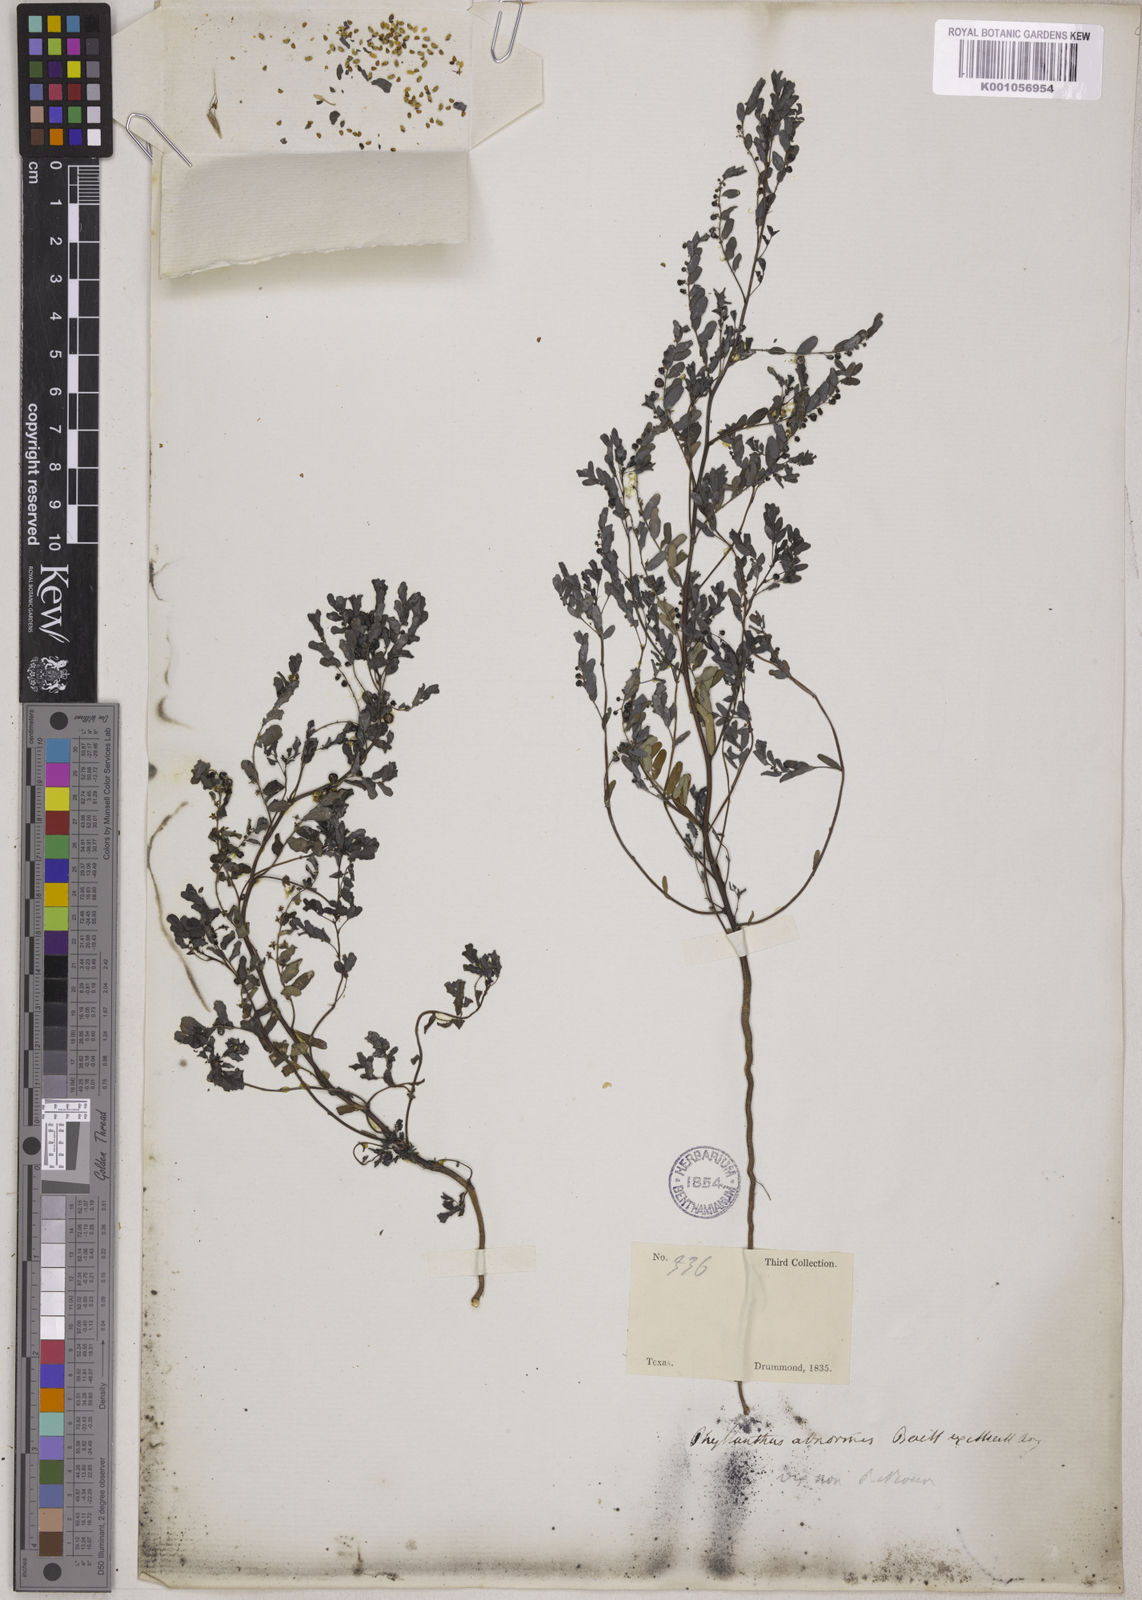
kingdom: Plantae
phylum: Tracheophyta
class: Magnoliopsida
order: Malpighiales
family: Phyllanthaceae
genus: Phyllanthus
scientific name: Phyllanthus abnormis
